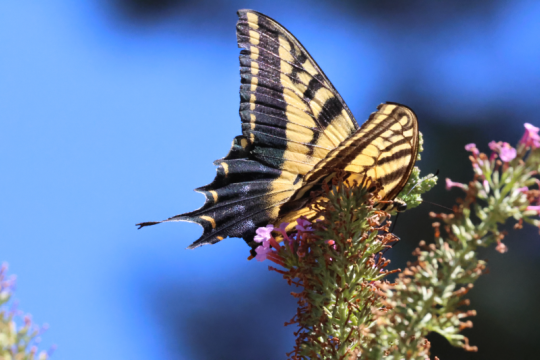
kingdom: Animalia
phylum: Arthropoda
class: Insecta
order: Lepidoptera
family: Papilionidae
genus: Papilio
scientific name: Papilio multicaudata
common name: Two-tailed Swallowtail
